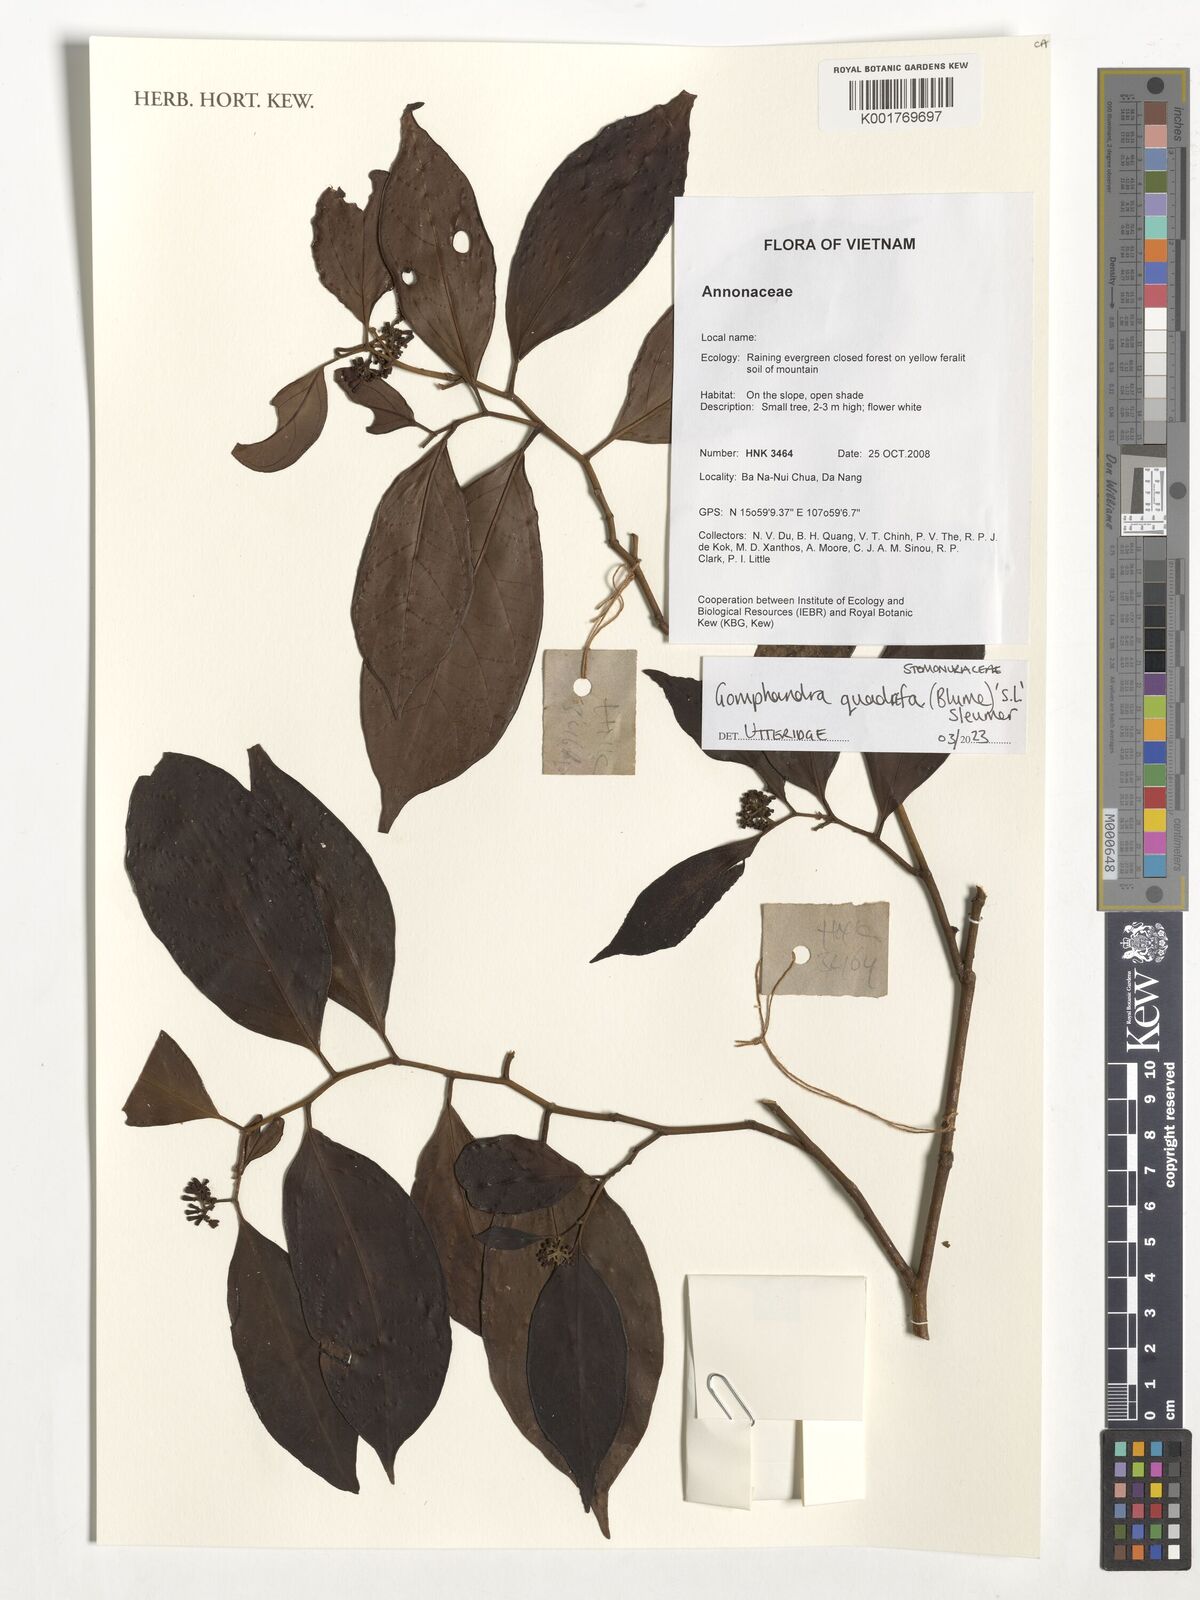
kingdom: Plantae
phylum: Tracheophyta
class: Magnoliopsida
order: Cardiopteridales
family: Stemonuraceae
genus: Gomphandra
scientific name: Gomphandra quadrifida
